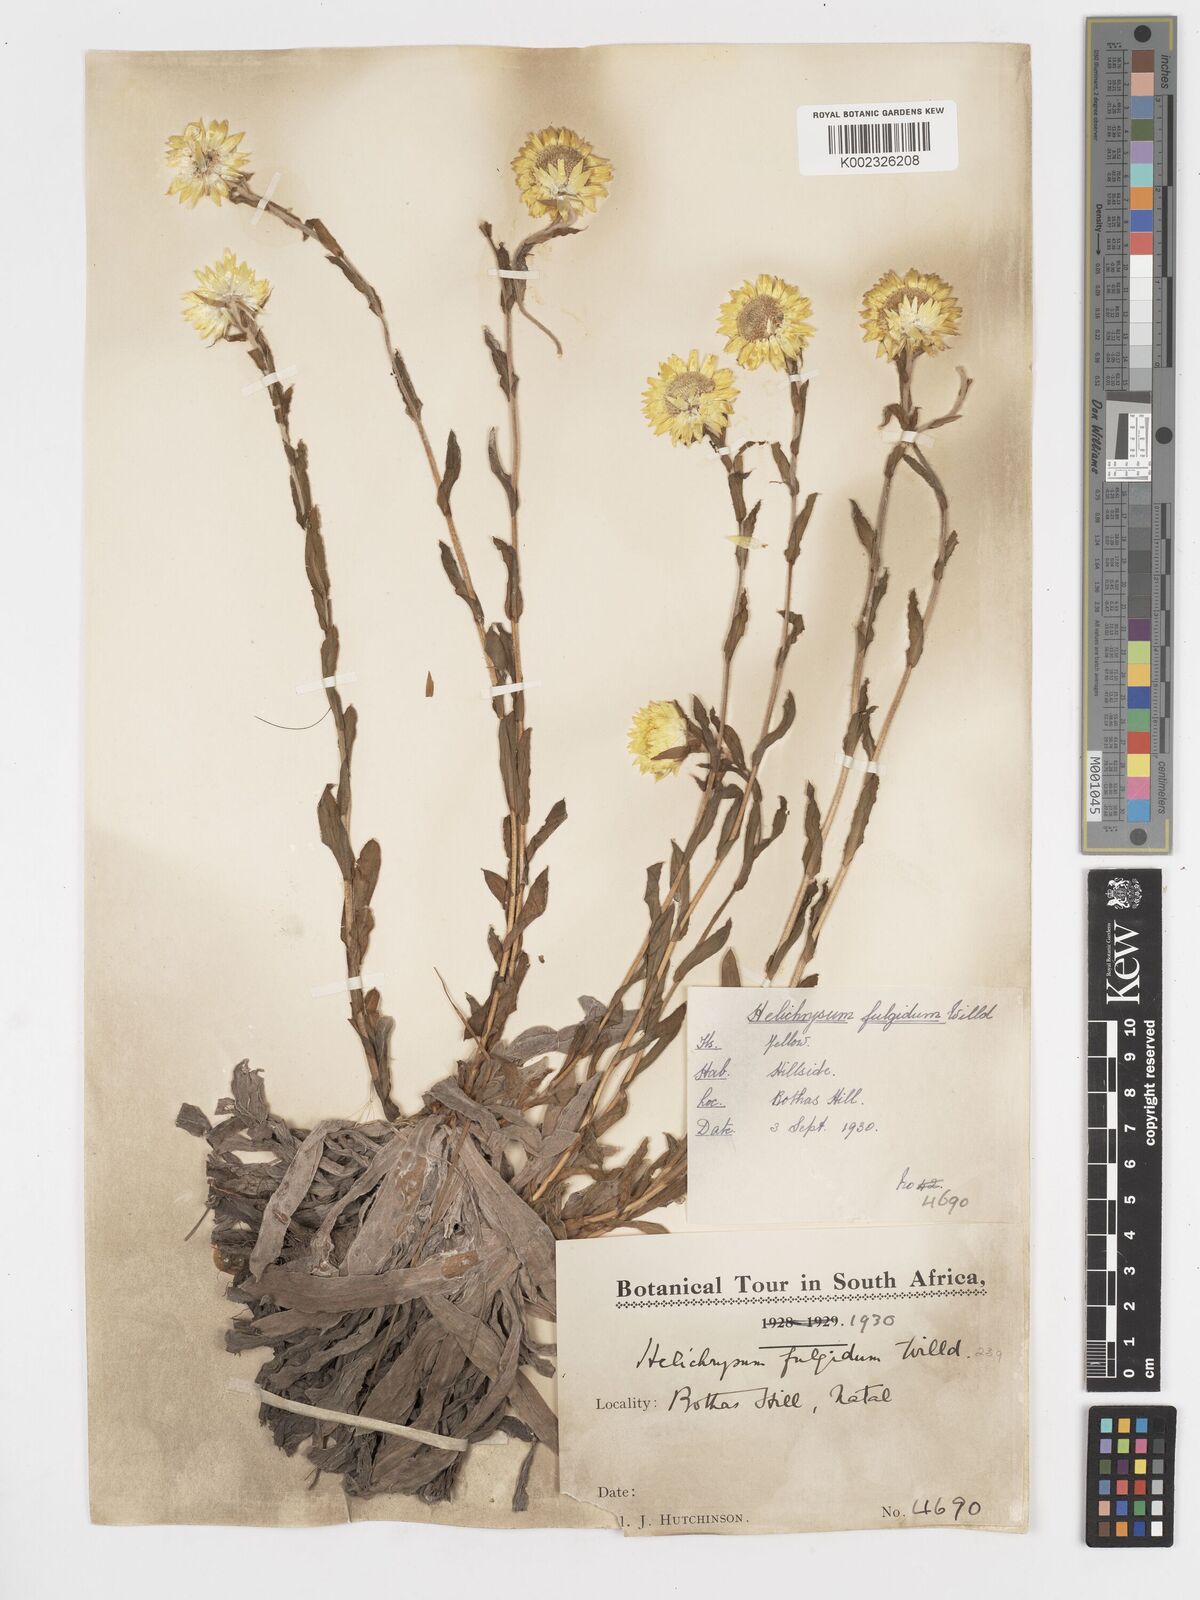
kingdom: Plantae
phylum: Tracheophyta
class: Magnoliopsida
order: Asterales
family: Asteraceae
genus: Helichrysum
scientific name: Helichrysum aureum
